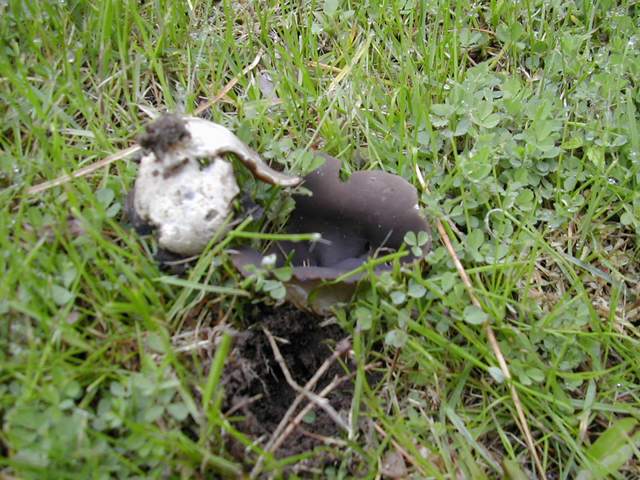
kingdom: Fungi
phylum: Ascomycota
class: Pezizomycetes
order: Pezizales
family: Helvellaceae
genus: Dissingia
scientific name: Dissingia leucomelaena
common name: sorthvid foldhat
